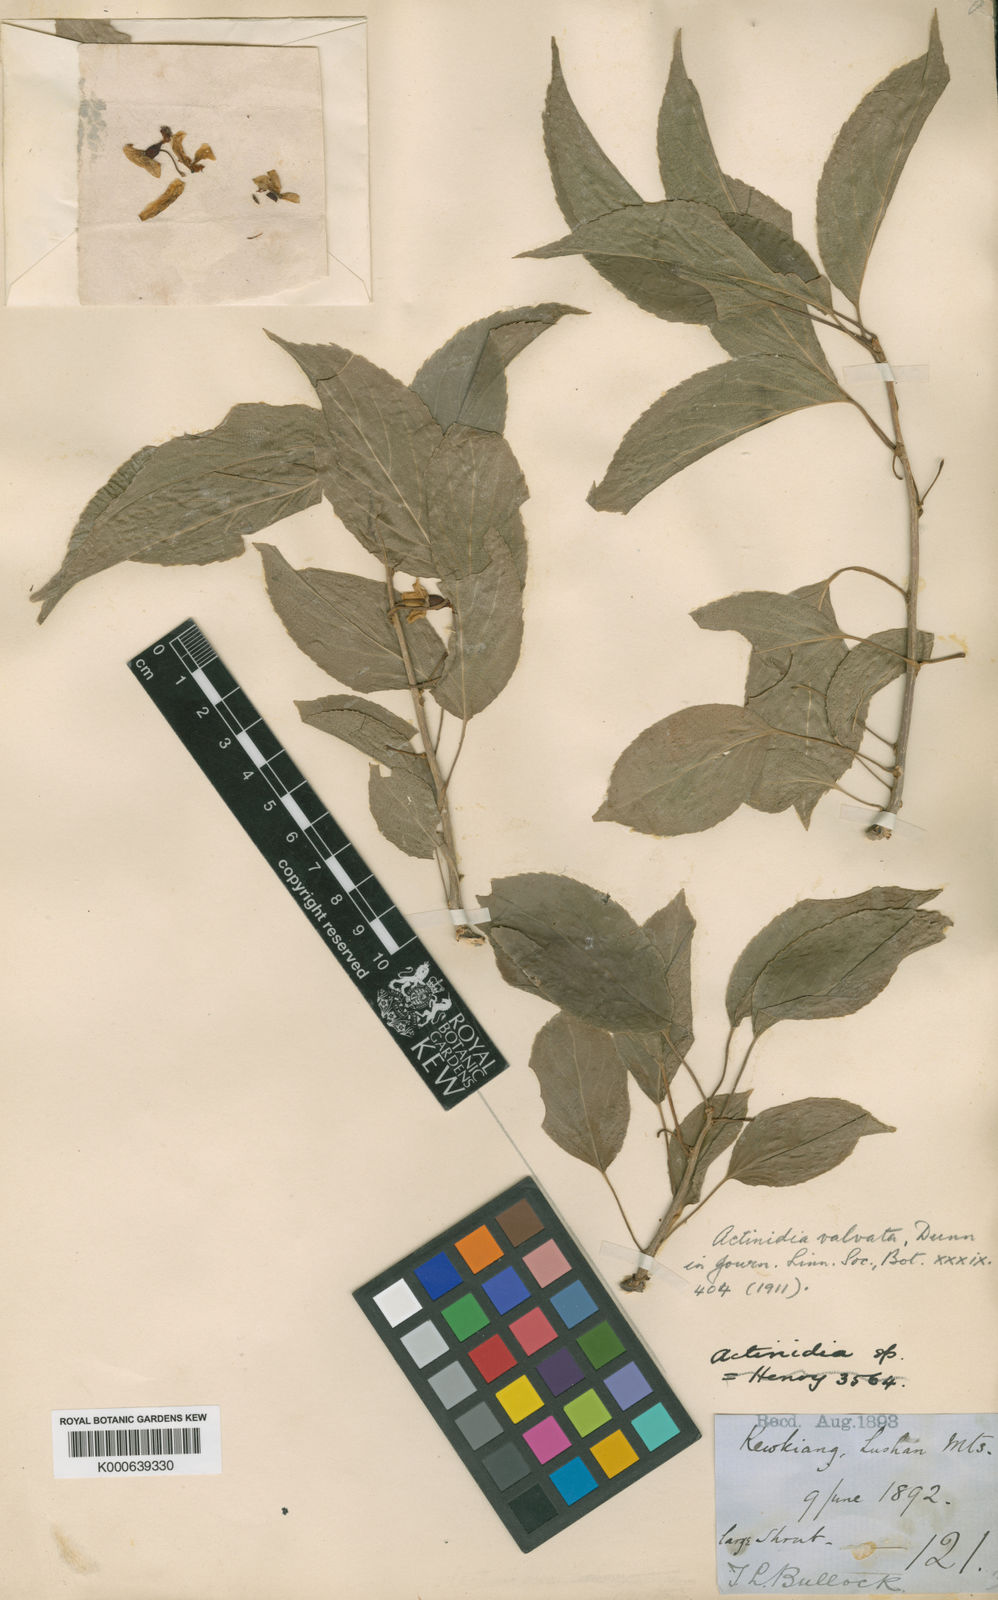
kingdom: Plantae
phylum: Tracheophyta
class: Magnoliopsida
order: Ericales
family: Actinidiaceae
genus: Actinidia
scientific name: Actinidia valvata
